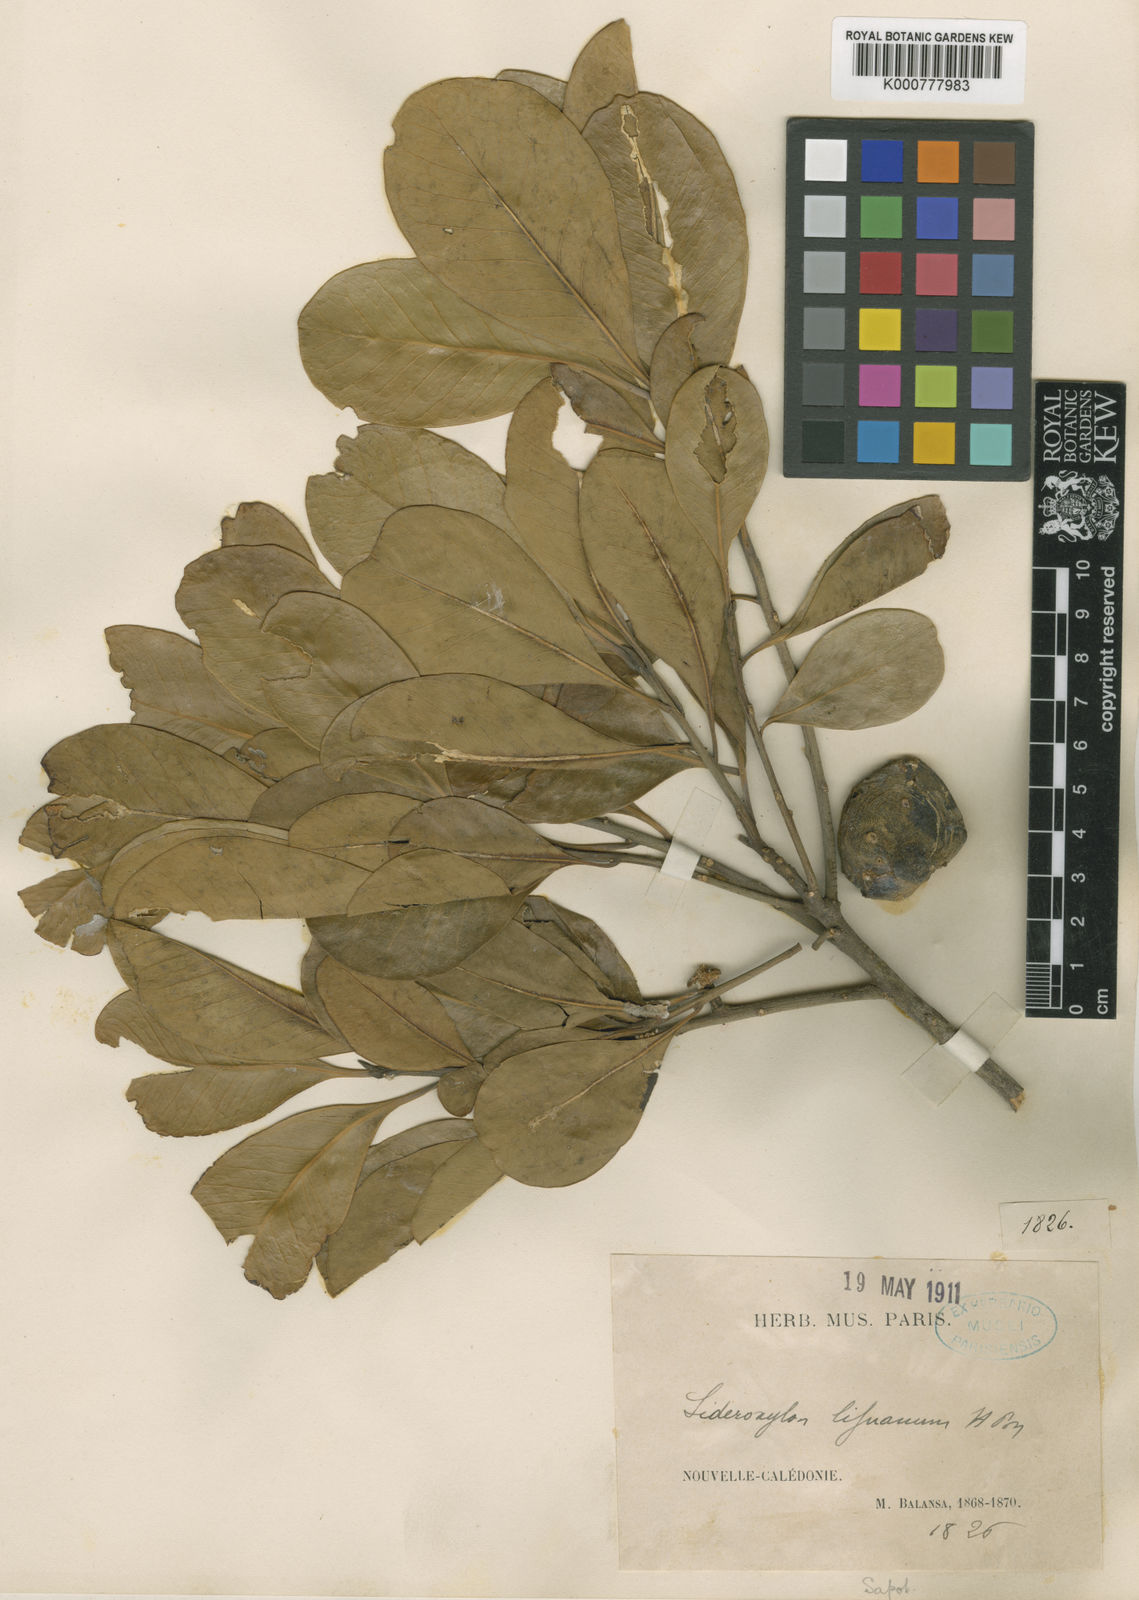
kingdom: Plantae
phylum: Tracheophyta
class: Magnoliopsida
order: Ericales
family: Sapotaceae
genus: Planchonella
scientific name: Planchonella lifuana
